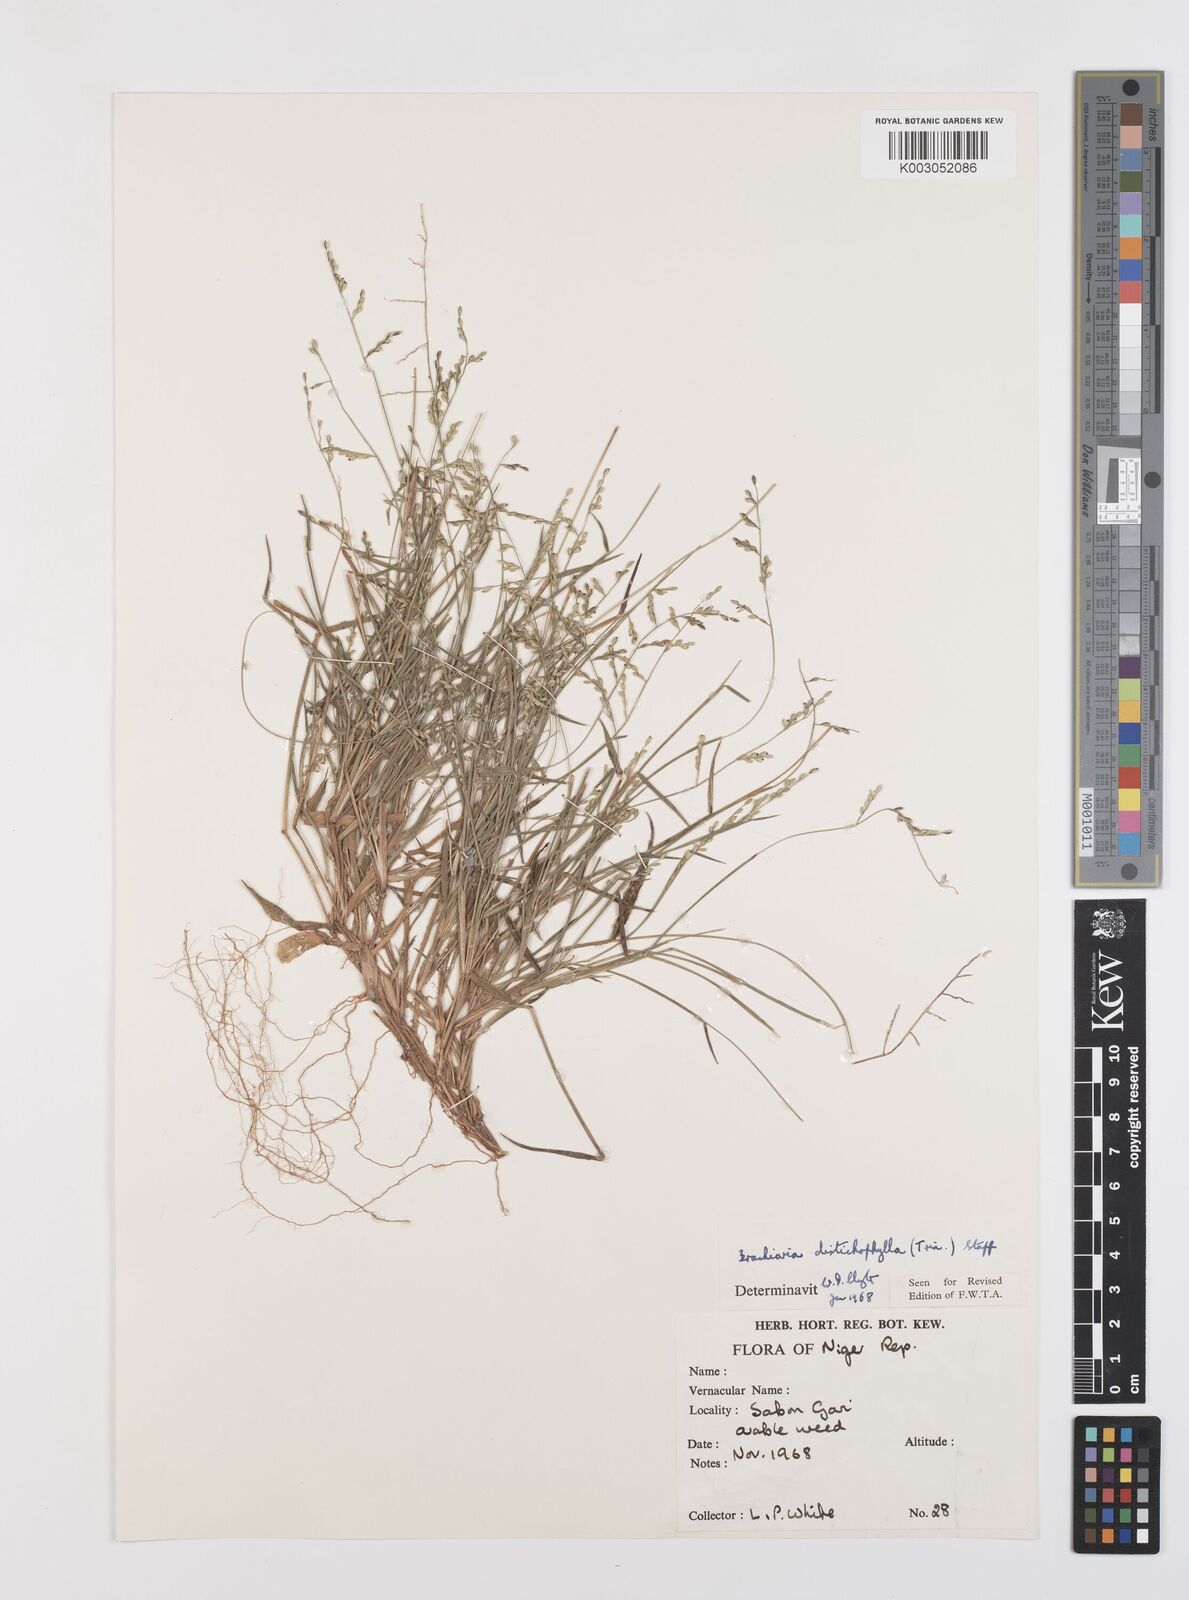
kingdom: Plantae
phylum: Tracheophyta
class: Liliopsida
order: Poales
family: Poaceae
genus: Urochloa
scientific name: Urochloa villosa
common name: Hairy signalgrass
